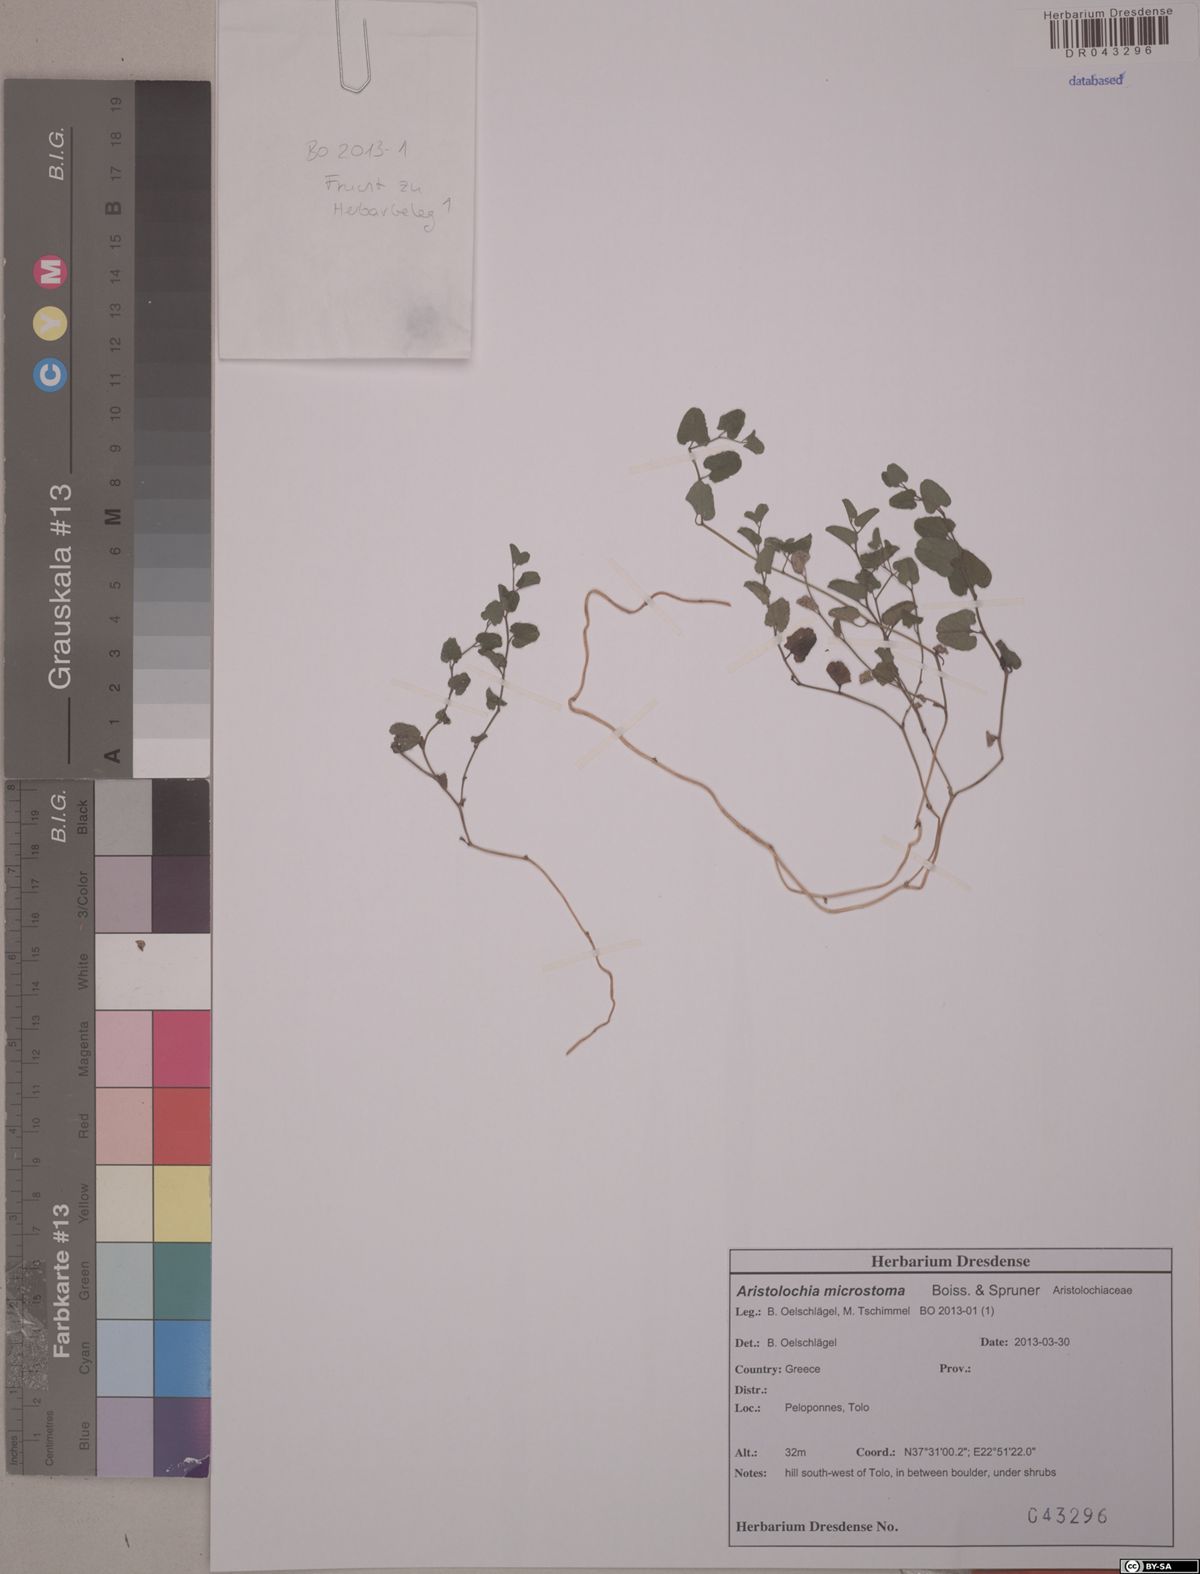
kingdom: Plantae
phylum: Tracheophyta
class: Magnoliopsida
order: Piperales
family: Aristolochiaceae
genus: Aristolochia
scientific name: Aristolochia microstoma
